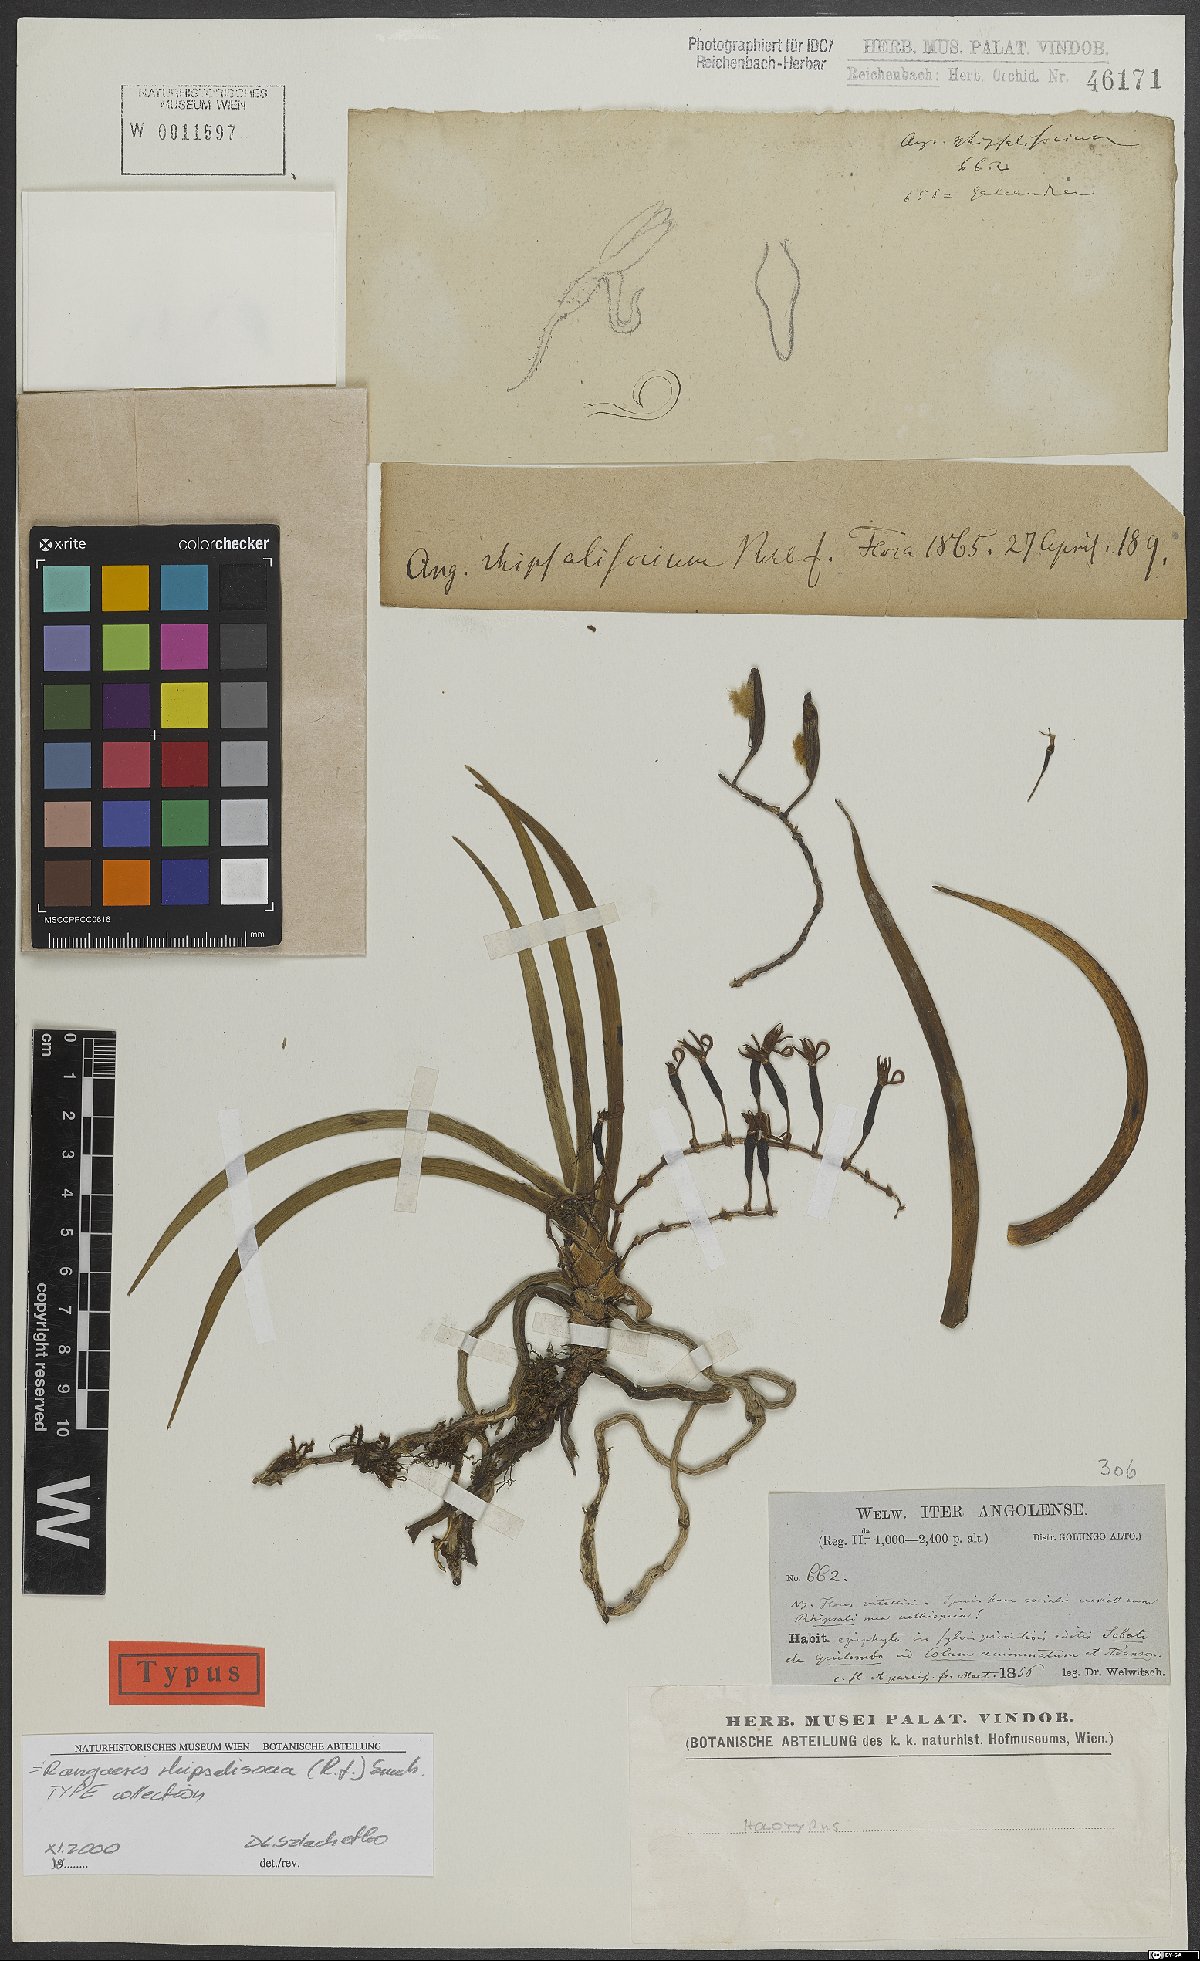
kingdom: Plantae
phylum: Tracheophyta
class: Liliopsida
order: Asparagales
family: Orchidaceae
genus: Rangaeris
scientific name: Rangaeris
